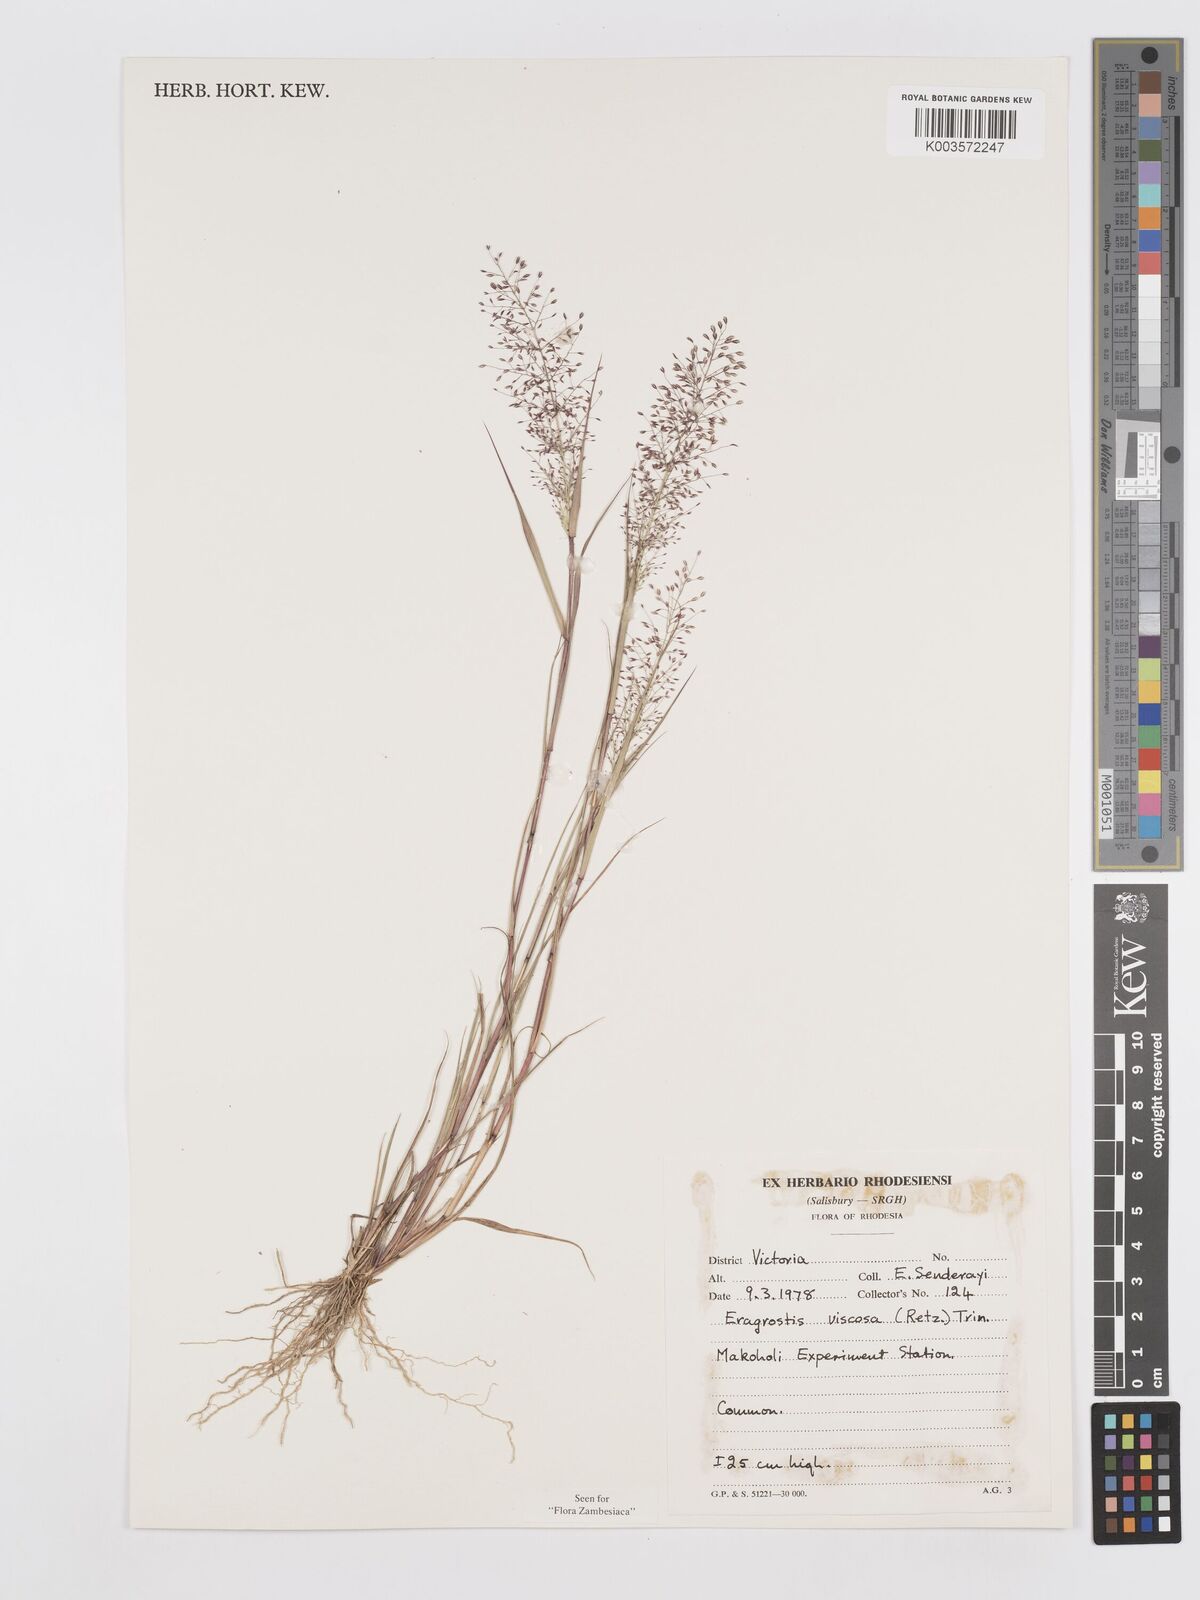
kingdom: Plantae
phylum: Tracheophyta
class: Liliopsida
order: Poales
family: Poaceae
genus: Eragrostis
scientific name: Eragrostis
